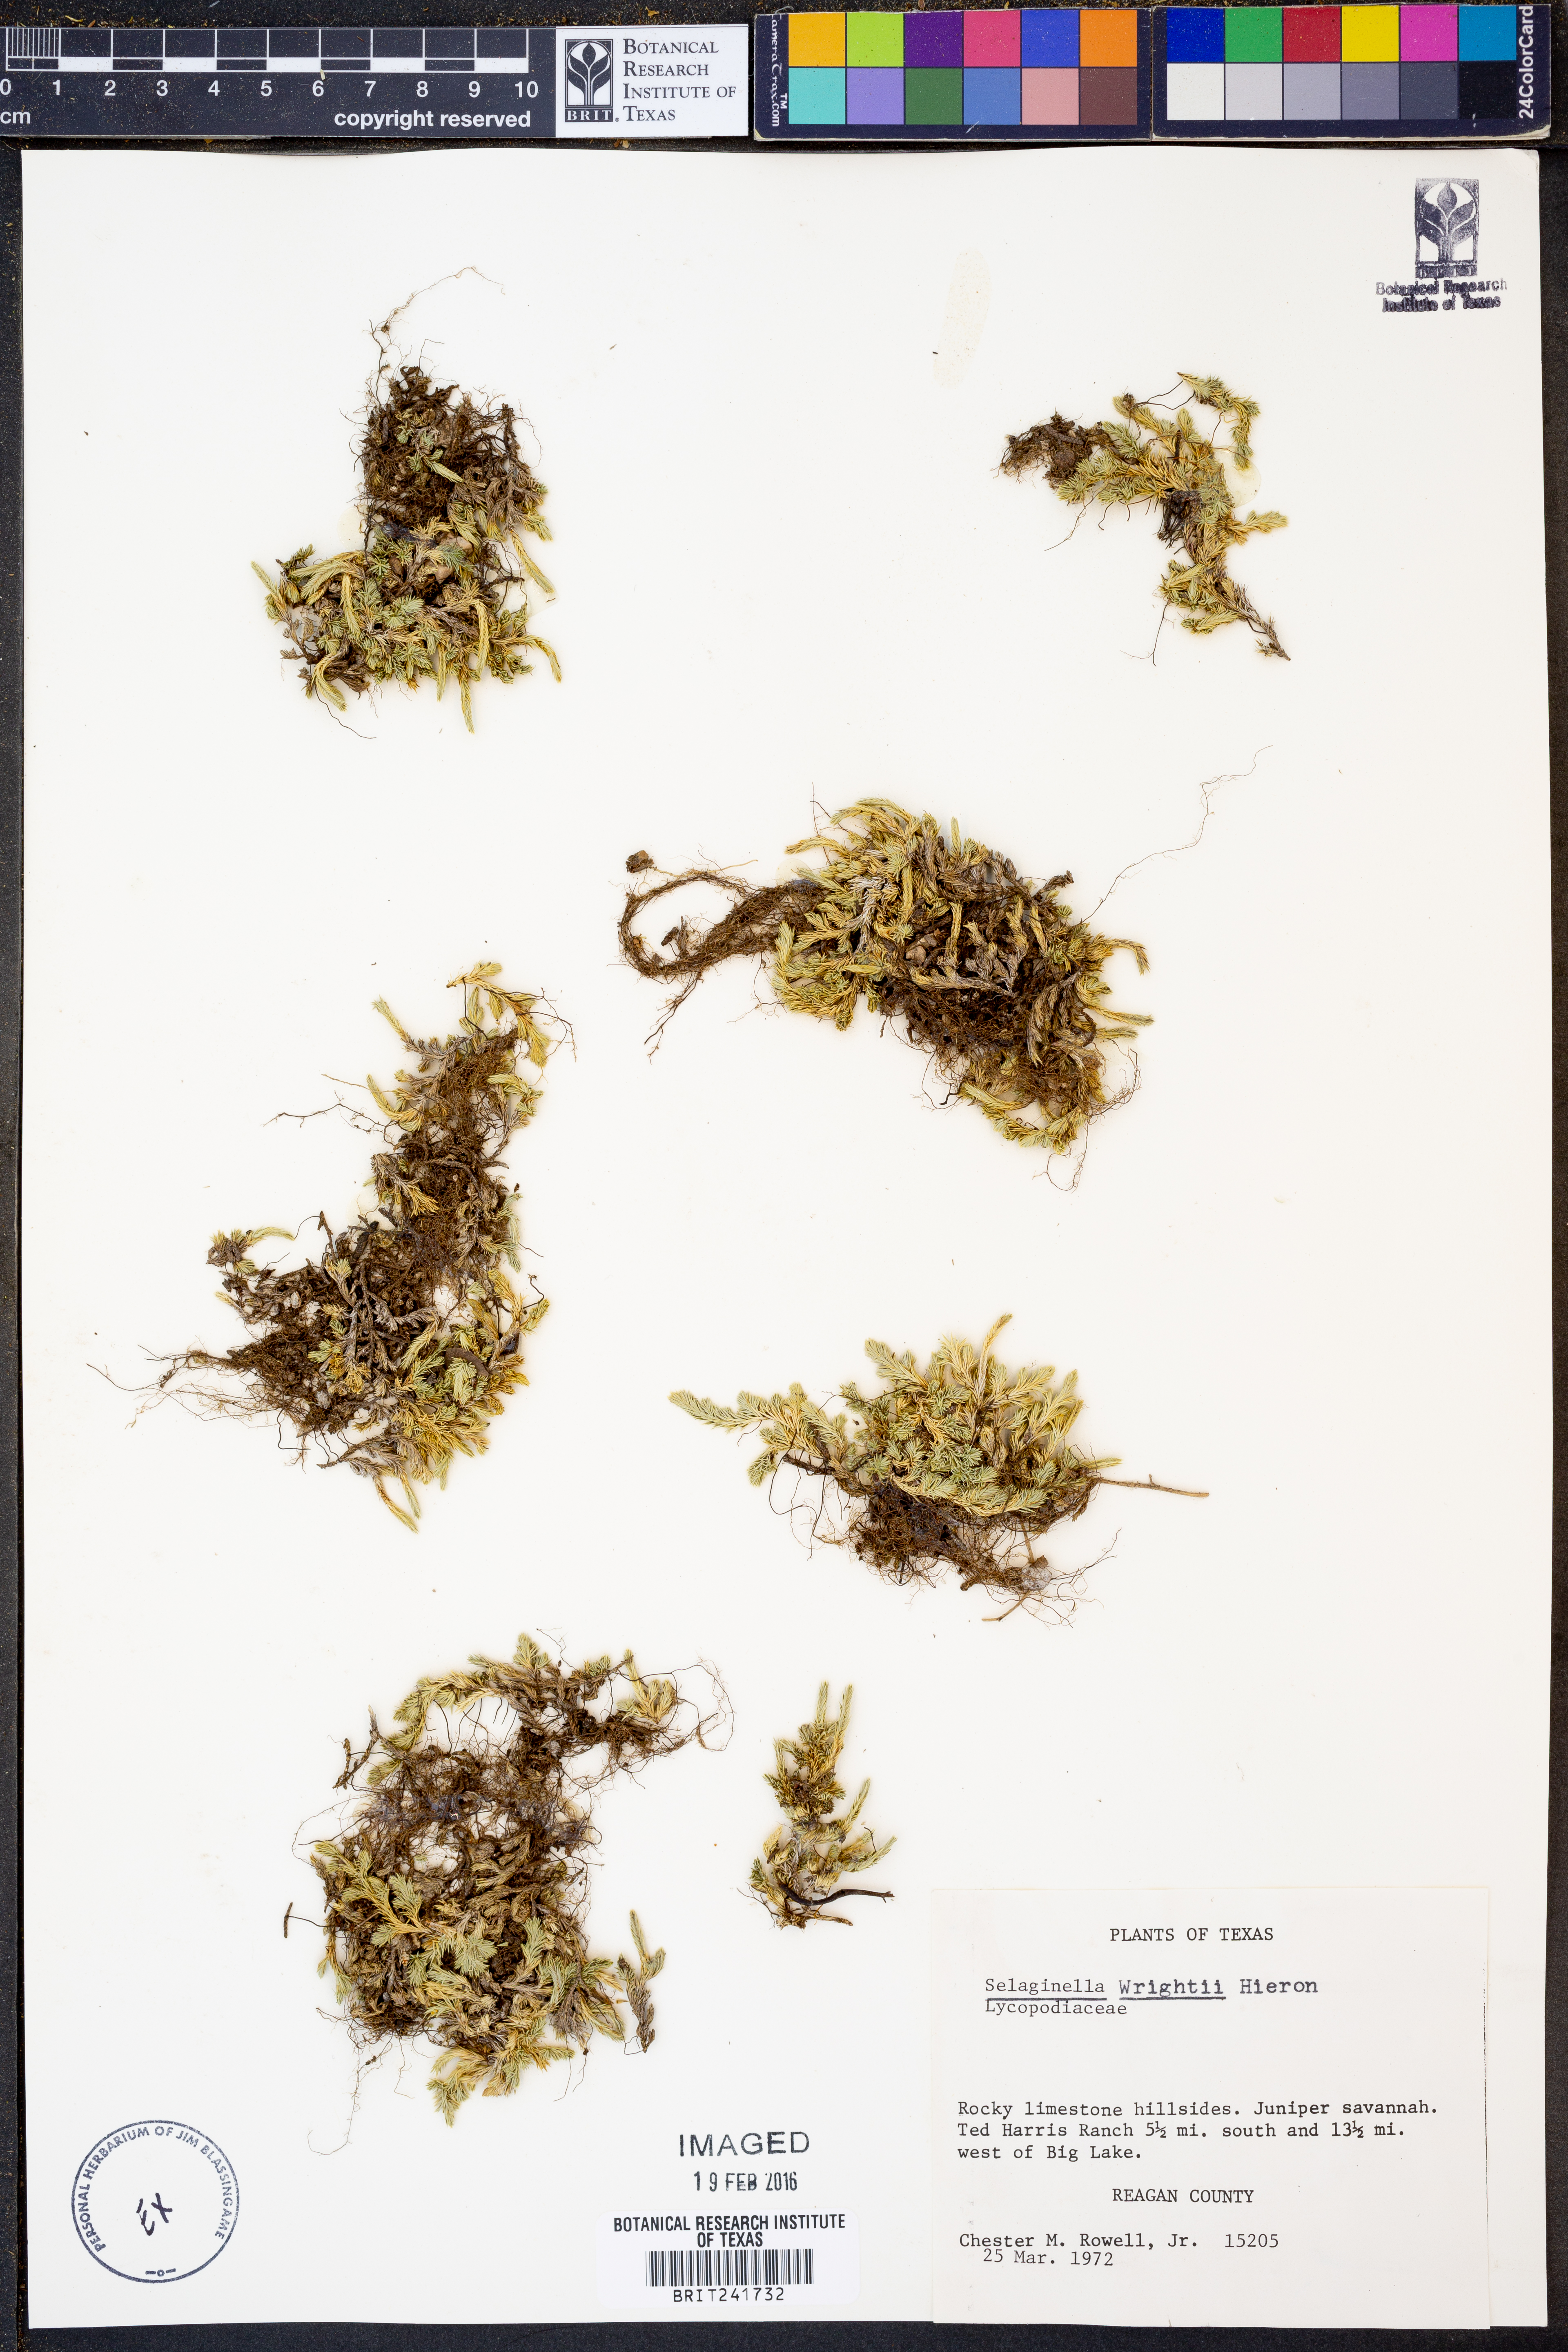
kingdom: Plantae
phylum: Tracheophyta
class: Lycopodiopsida
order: Selaginellales
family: Selaginellaceae
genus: Selaginella
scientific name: Selaginella wrightii
